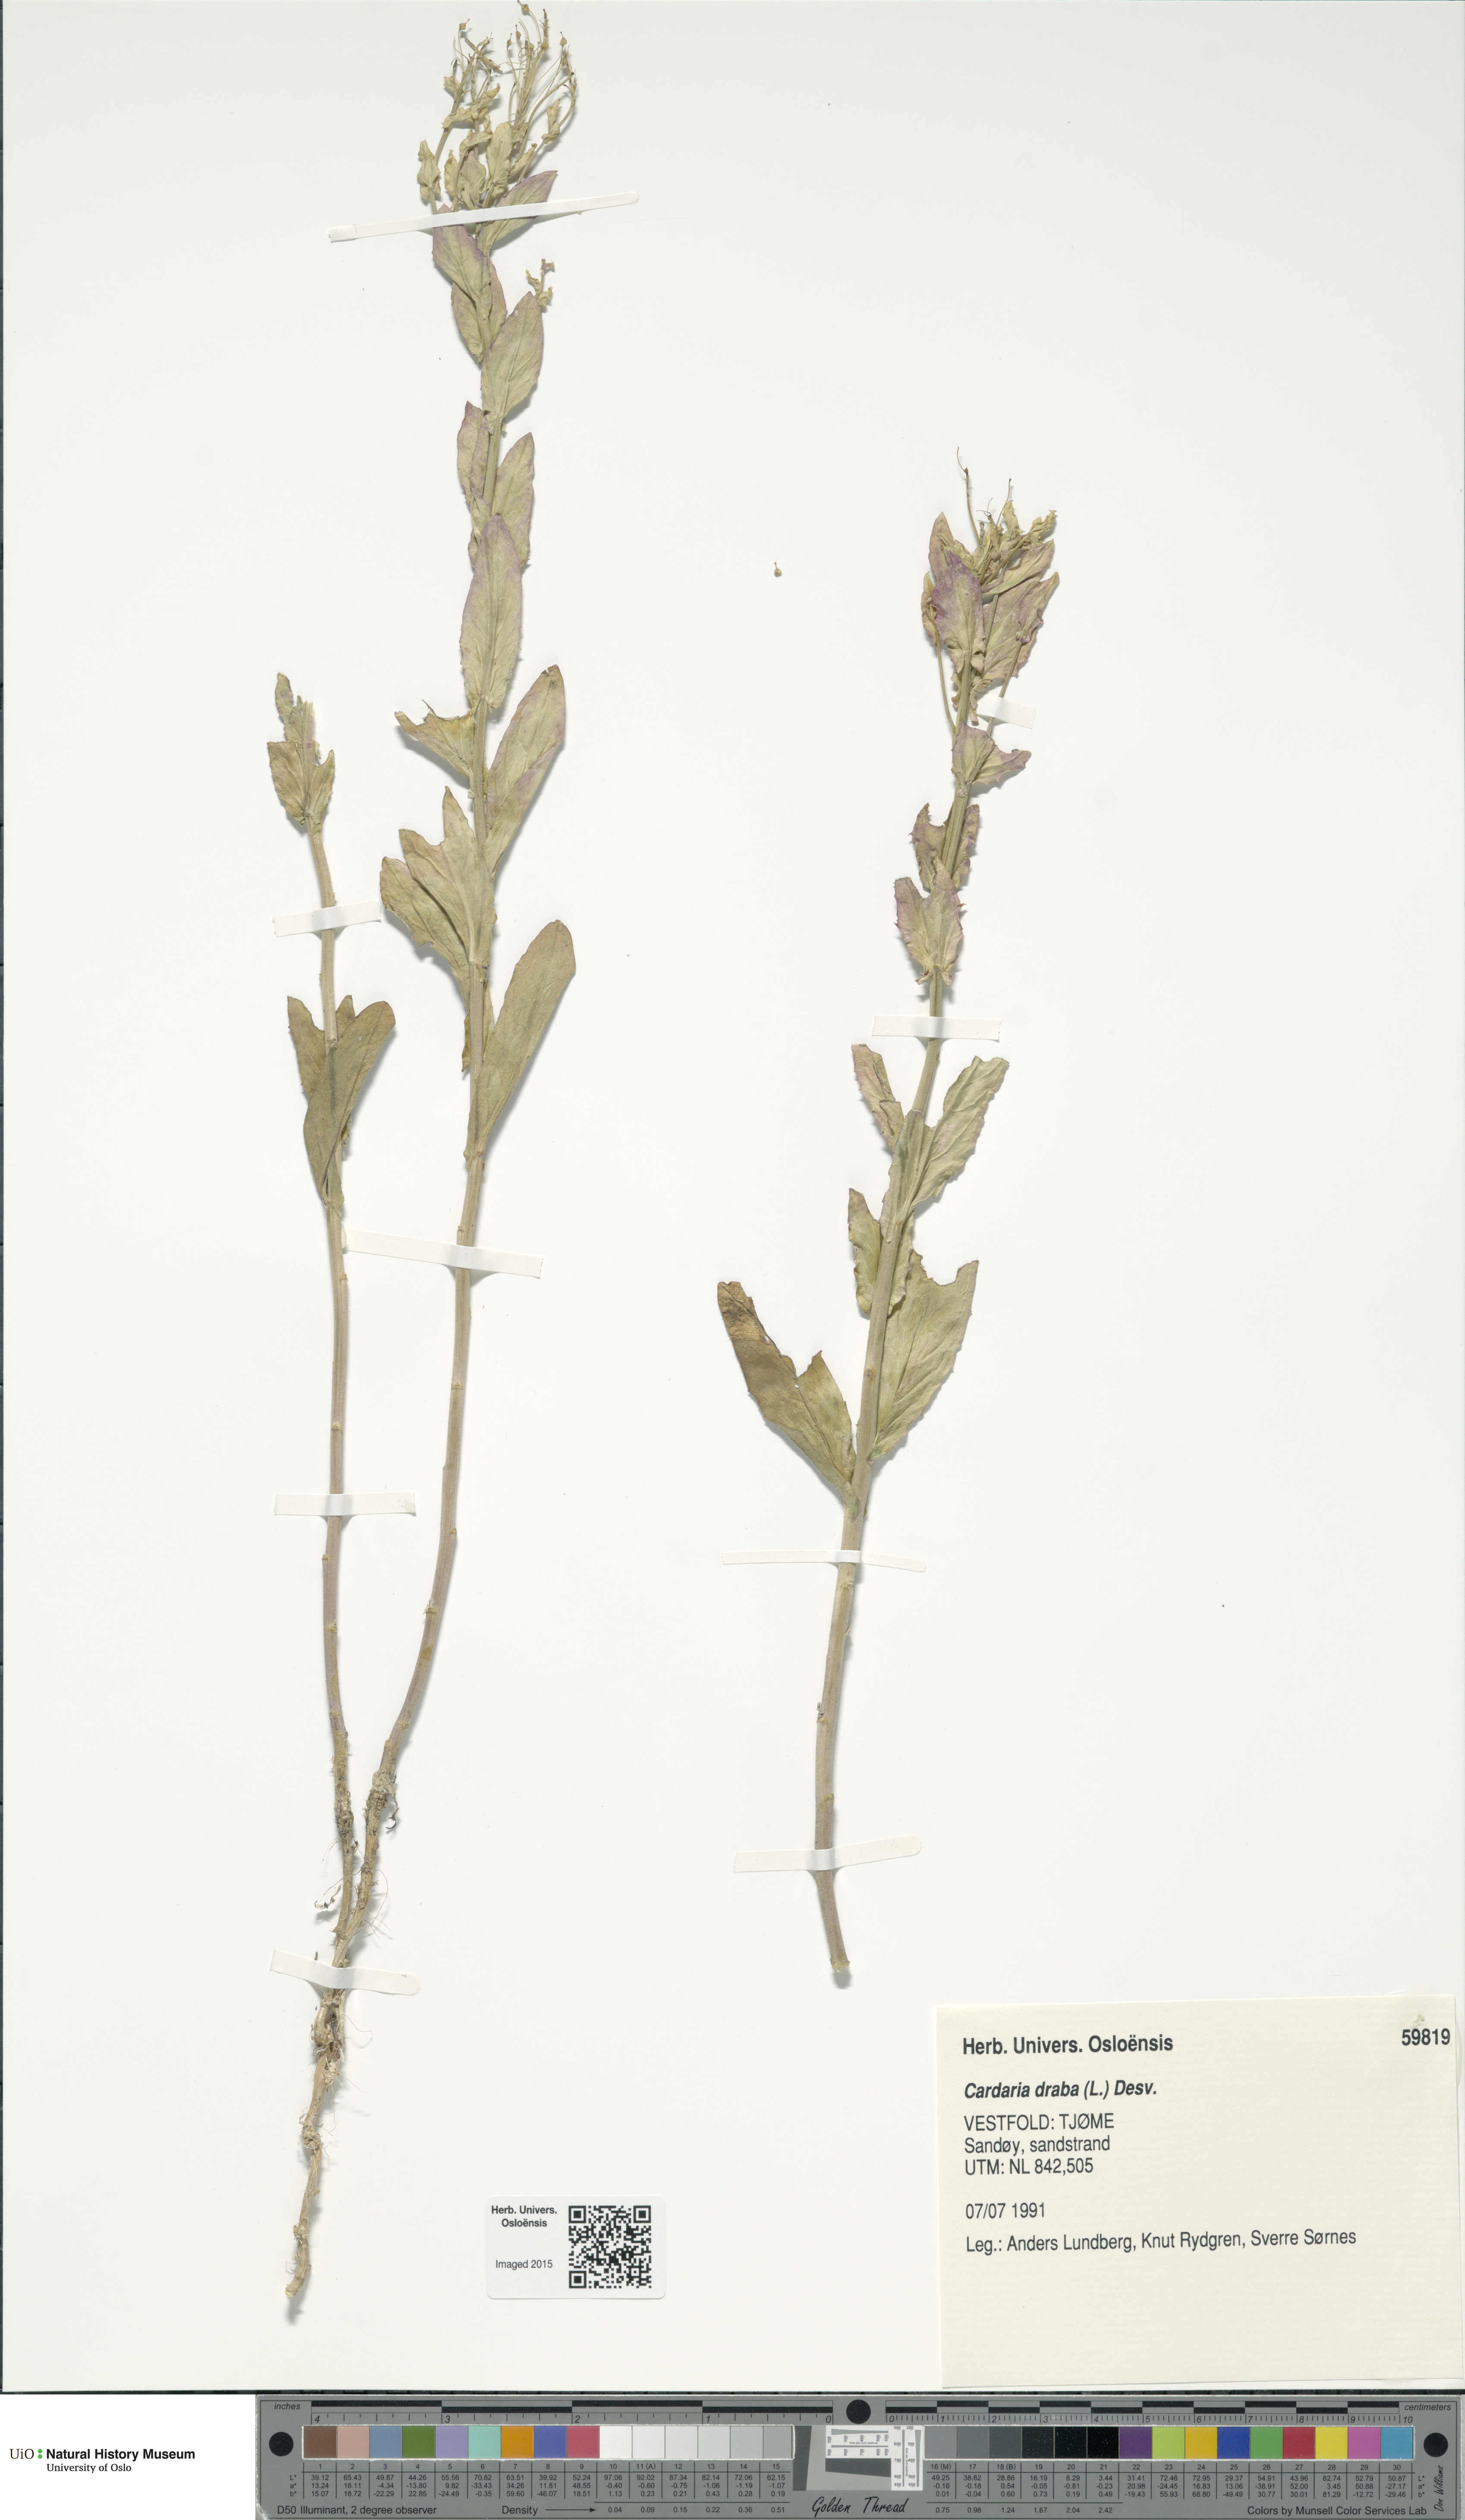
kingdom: Plantae
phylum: Tracheophyta
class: Magnoliopsida
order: Brassicales
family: Brassicaceae
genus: Lepidium
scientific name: Lepidium draba
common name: Hoary cress
